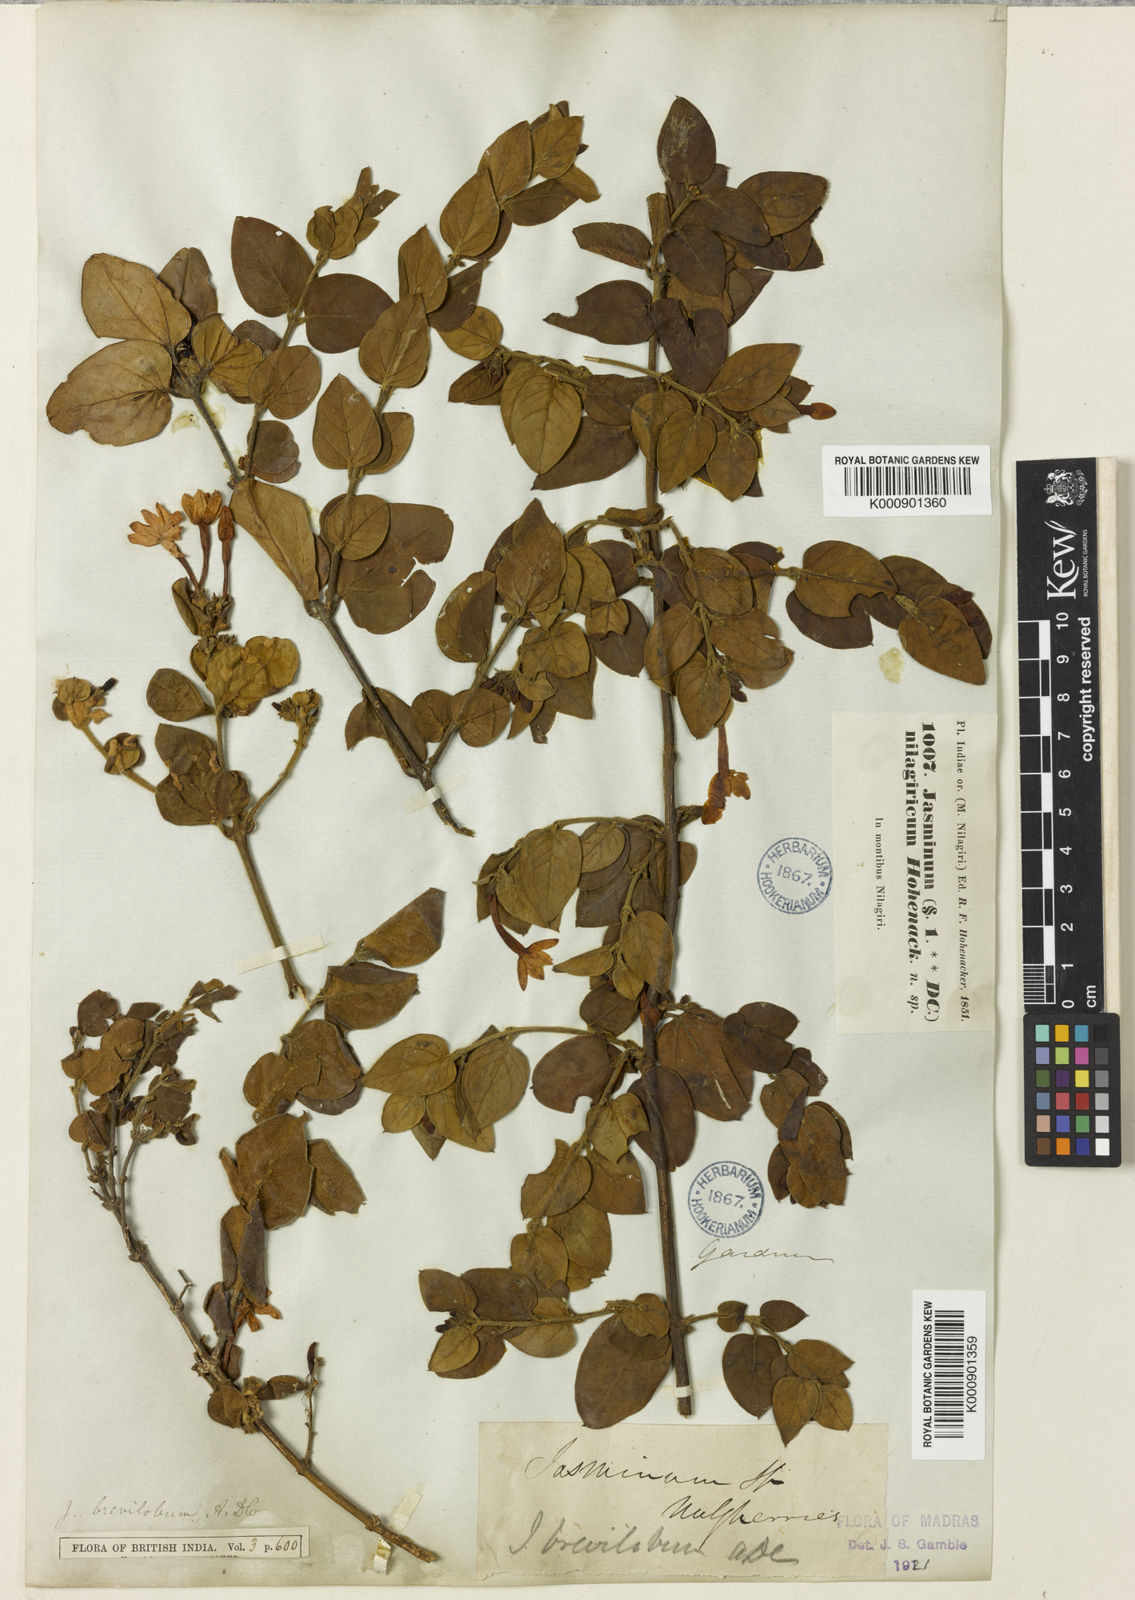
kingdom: Plantae
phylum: Tracheophyta
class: Magnoliopsida
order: Lamiales
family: Oleaceae
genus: Jasminum
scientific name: Jasminum brevilobum
